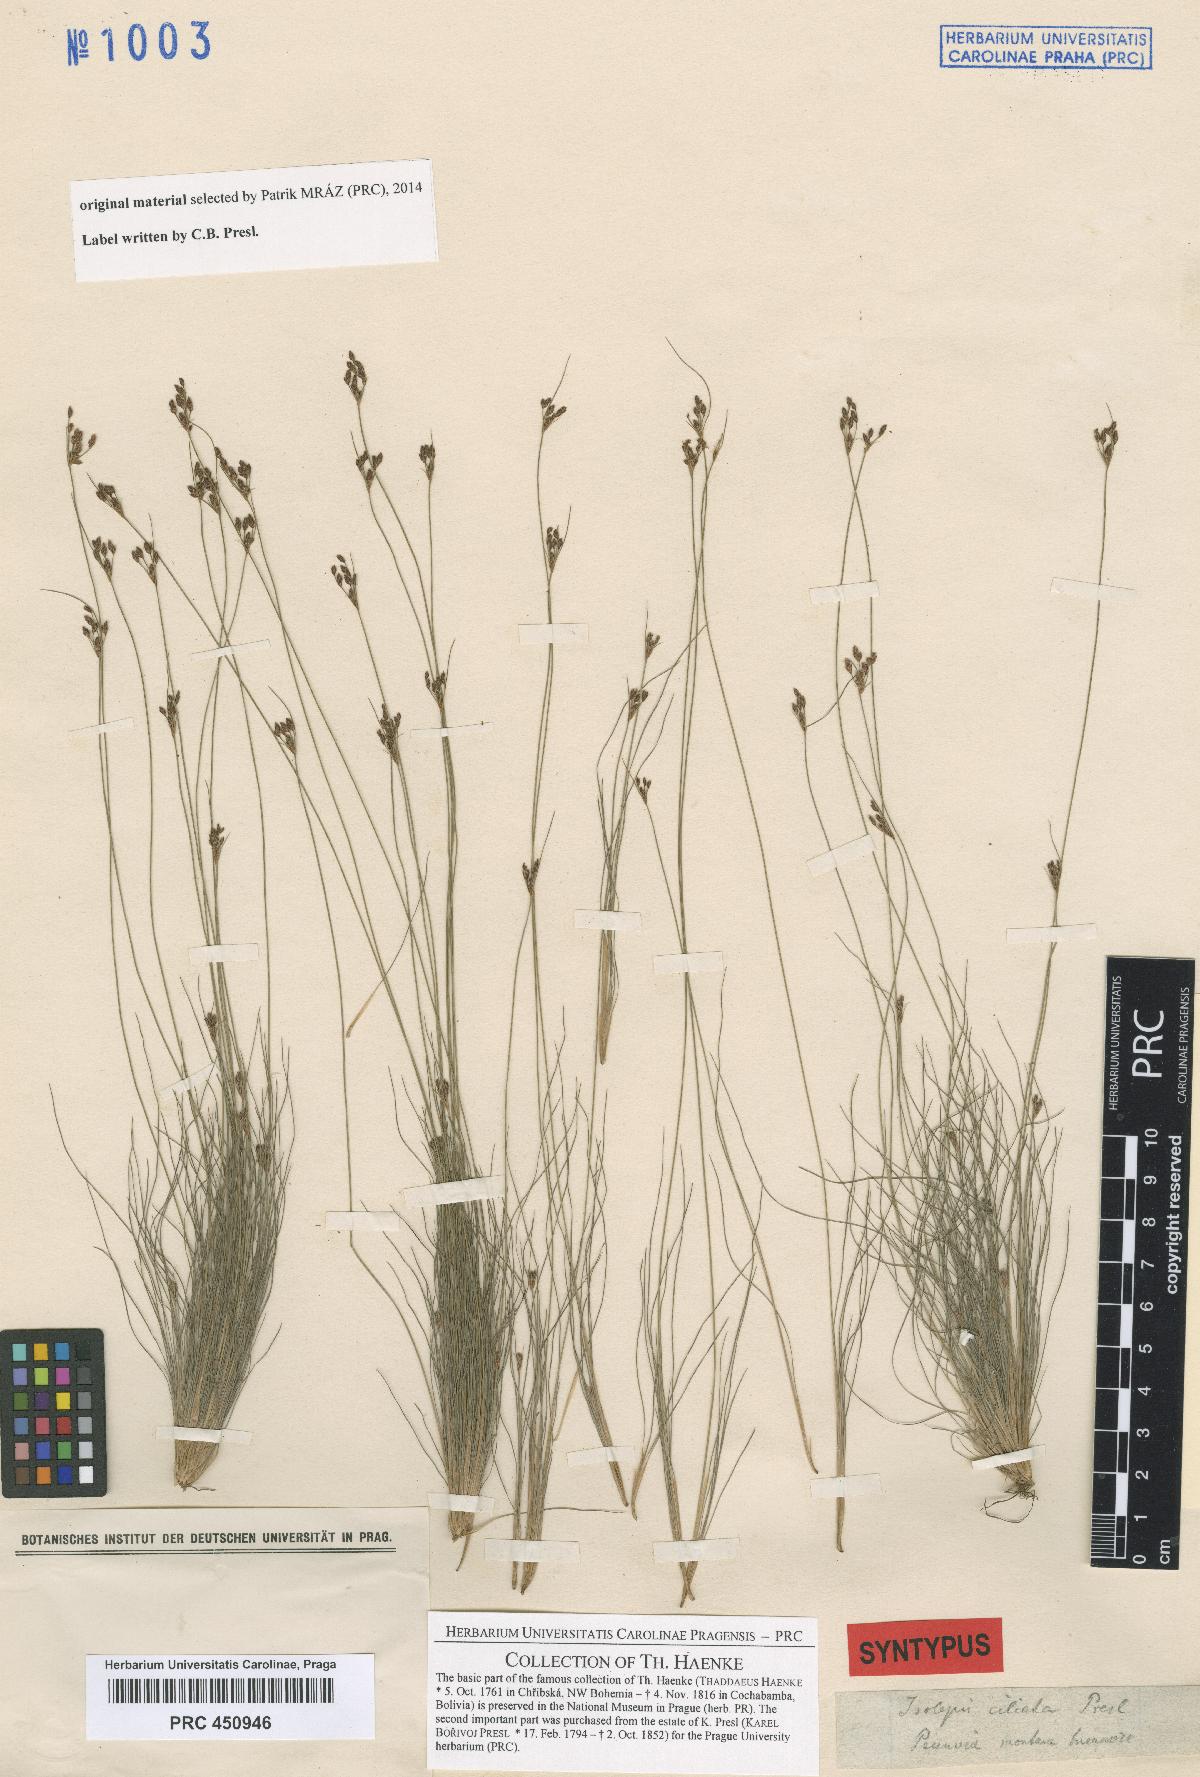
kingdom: Plantae
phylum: Tracheophyta
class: Liliopsida
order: Poales
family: Cyperaceae
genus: Bulbostylis
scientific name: Bulbostylis capillaris
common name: Densetuft hairsedge
